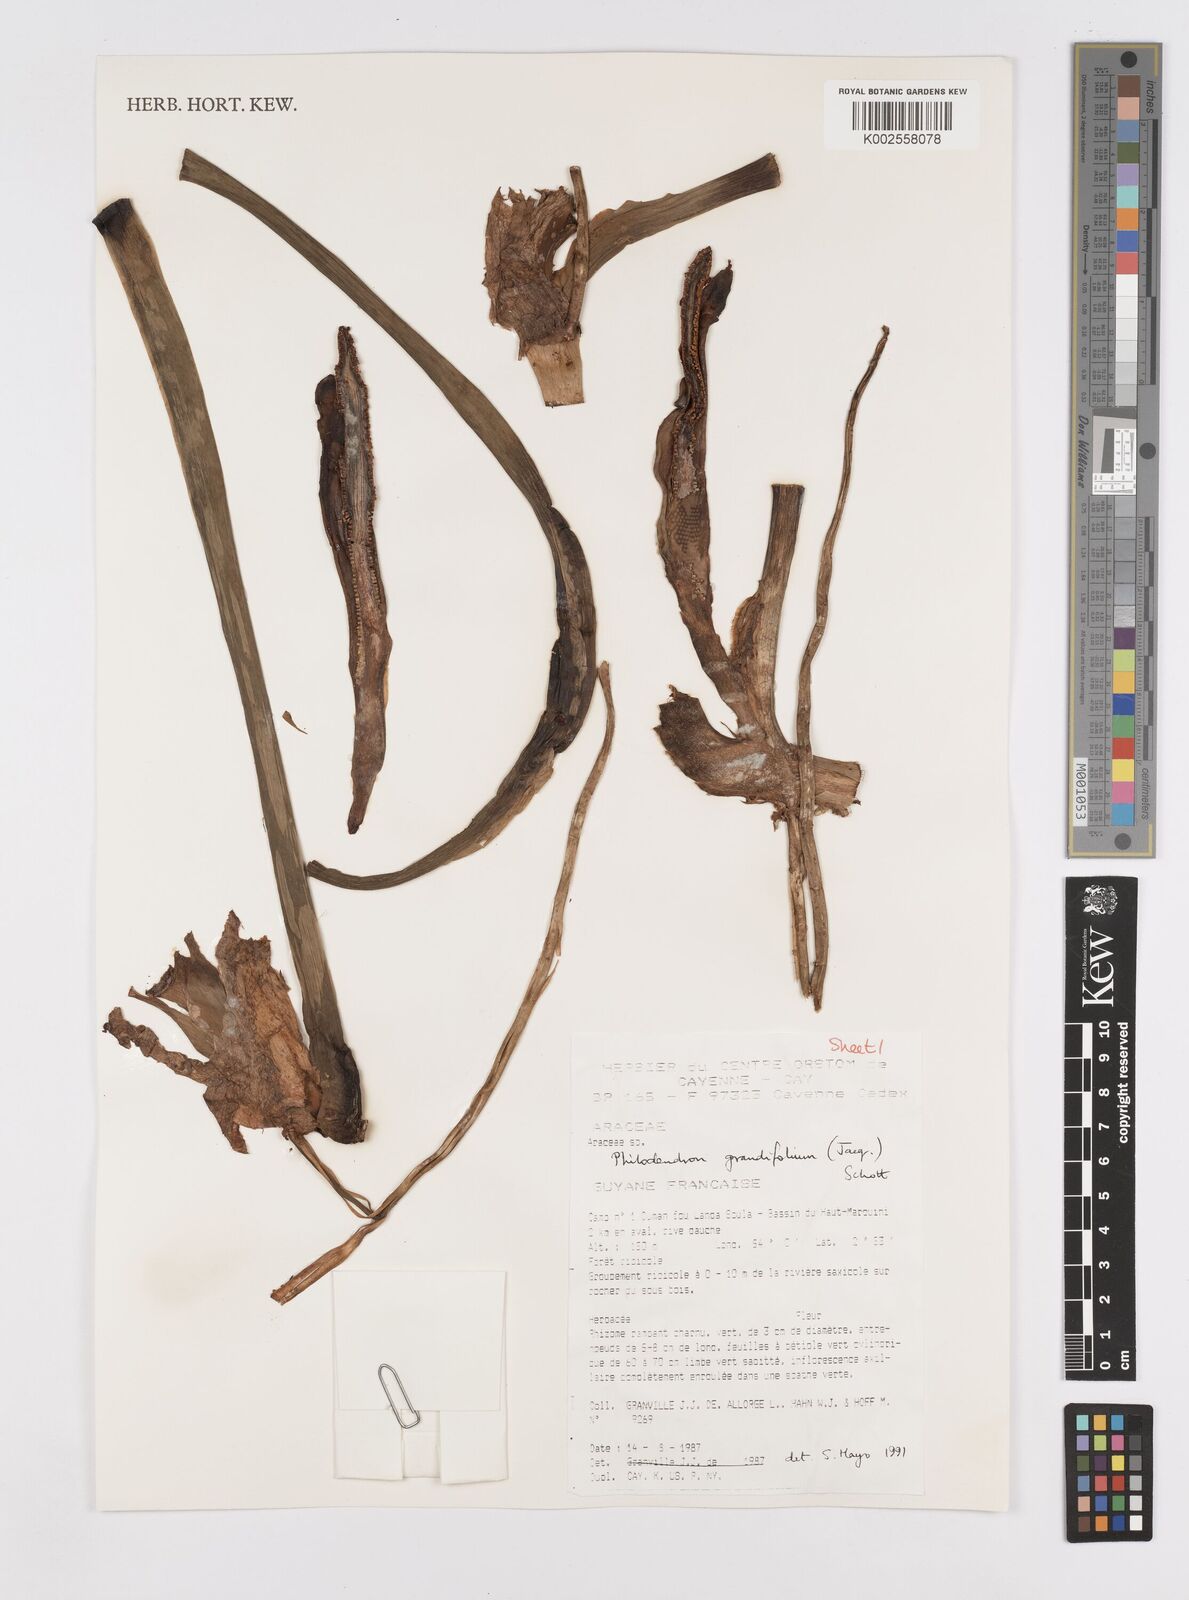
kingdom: Plantae
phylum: Tracheophyta
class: Liliopsida
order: Alismatales
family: Araceae
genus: Philodendron
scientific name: Philodendron grandifolium
